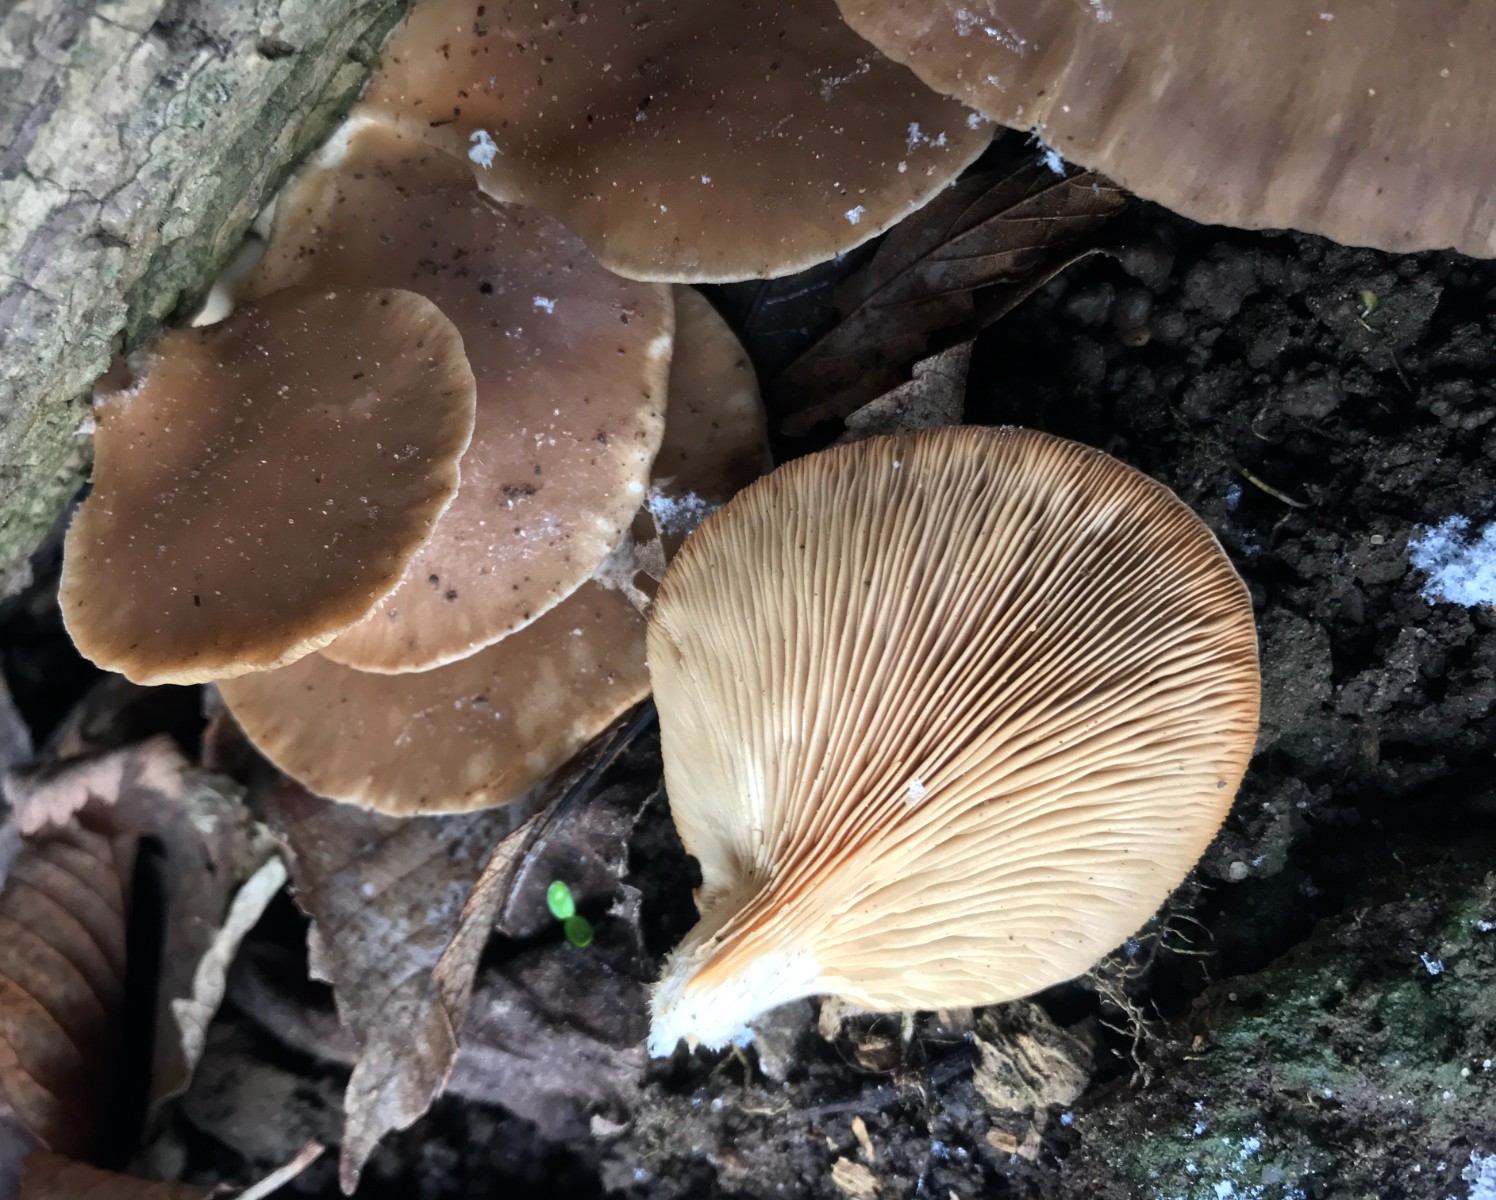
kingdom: Fungi
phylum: Basidiomycota
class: Agaricomycetes
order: Agaricales
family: Pleurotaceae
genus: Pleurotus
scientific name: Pleurotus ostreatus
